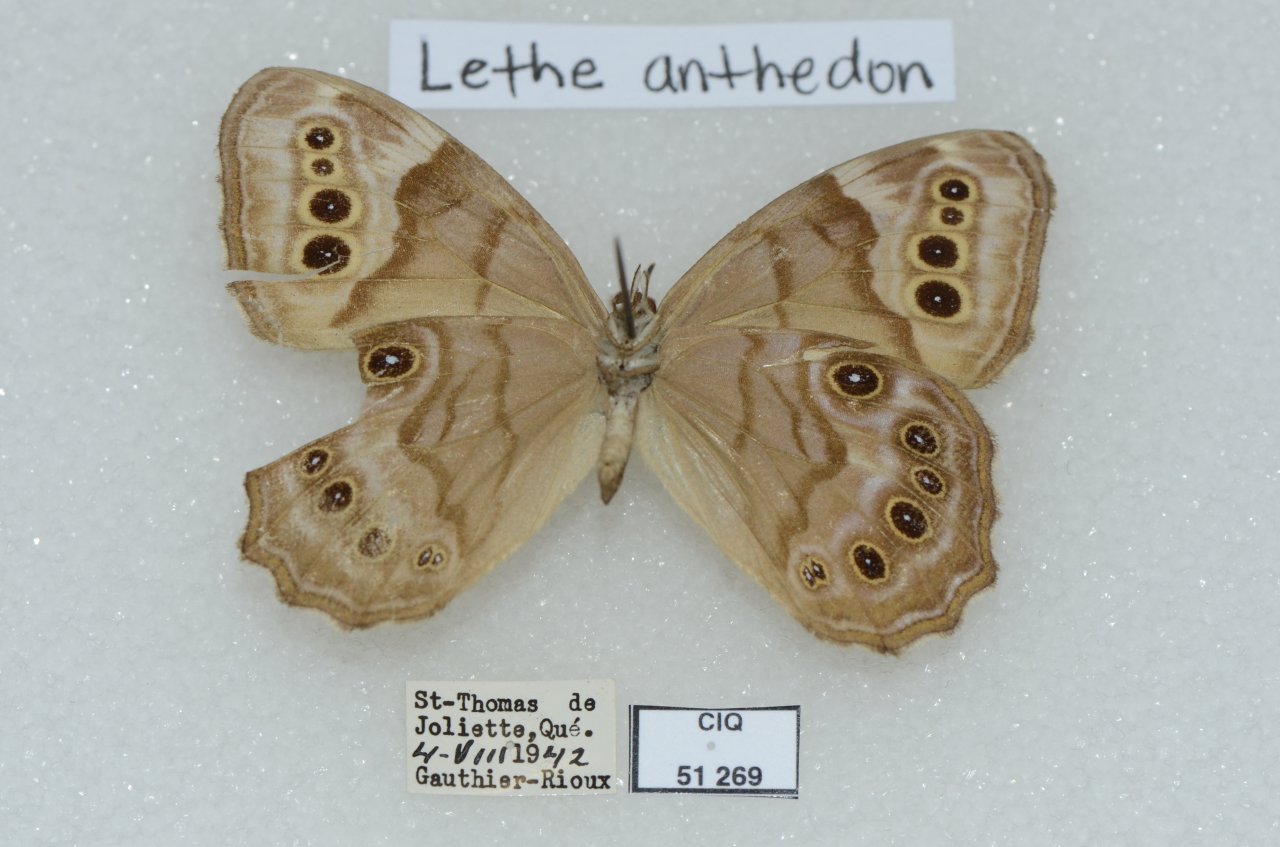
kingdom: Animalia
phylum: Arthropoda
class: Insecta
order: Lepidoptera
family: Nymphalidae
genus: Lethe
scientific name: Lethe anthedon
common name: Northern Pearly-Eye
